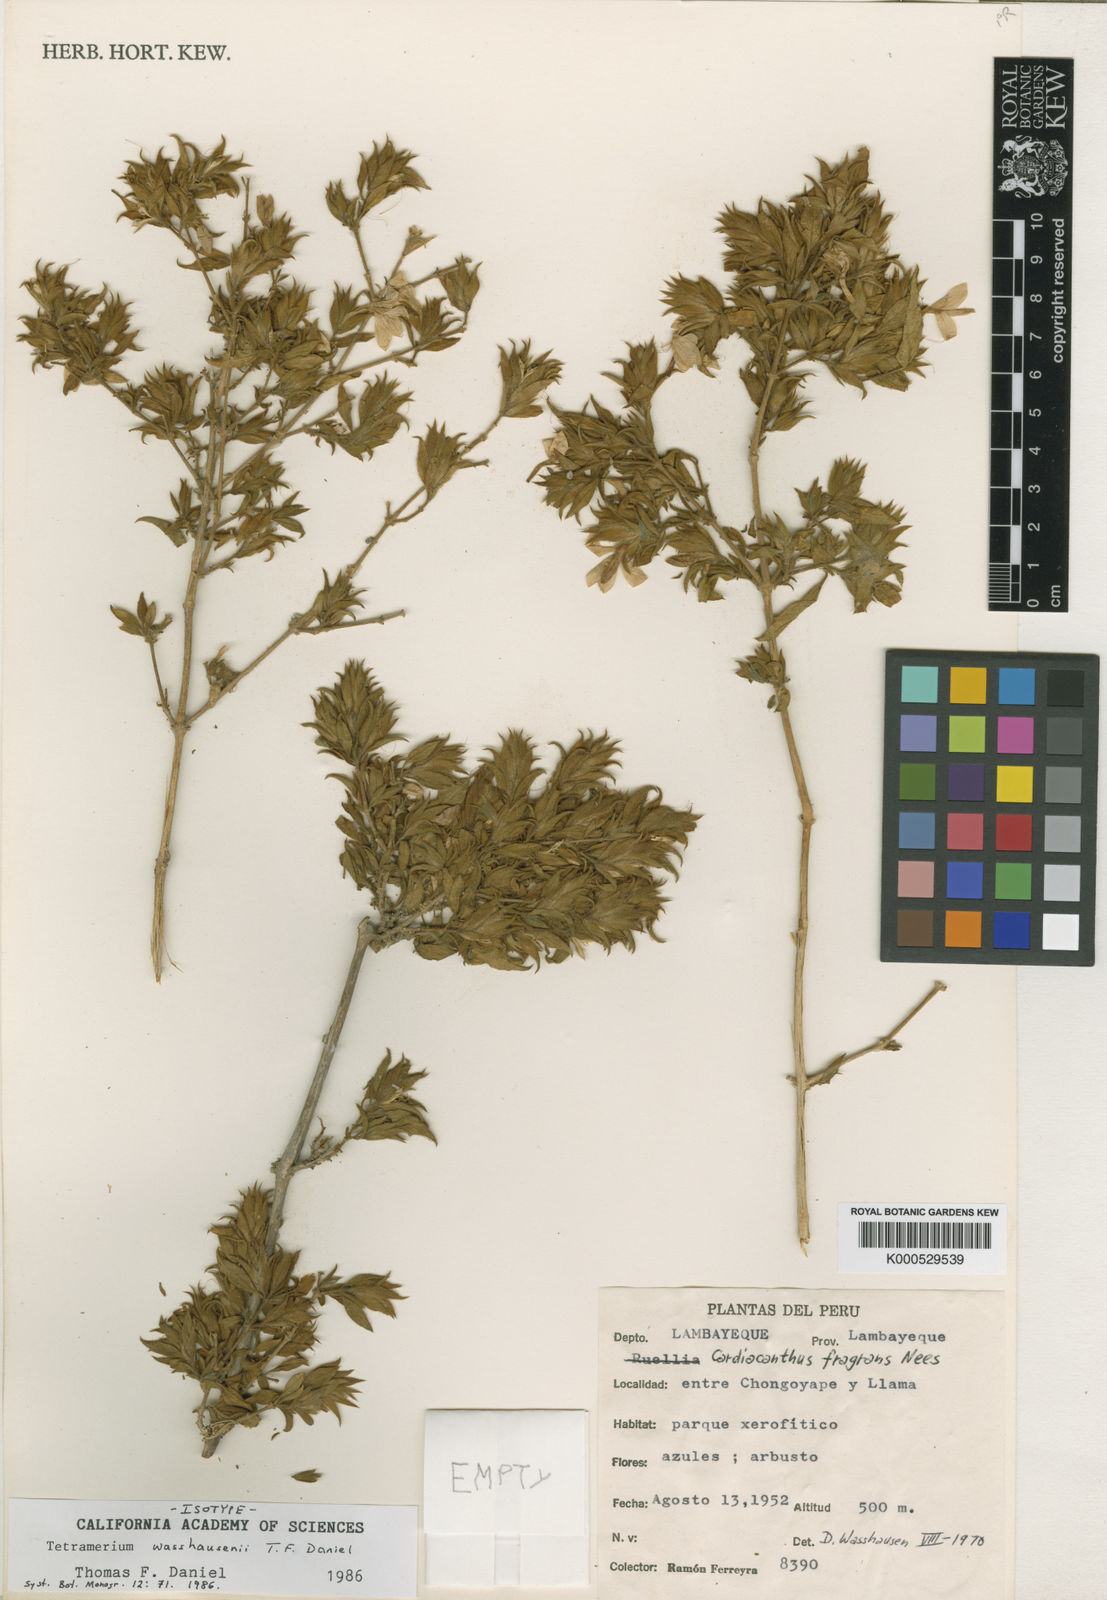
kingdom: Plantae
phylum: Tracheophyta
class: Magnoliopsida
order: Lamiales
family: Acanthaceae
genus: Tetramerium
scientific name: Tetramerium wasshausenii
